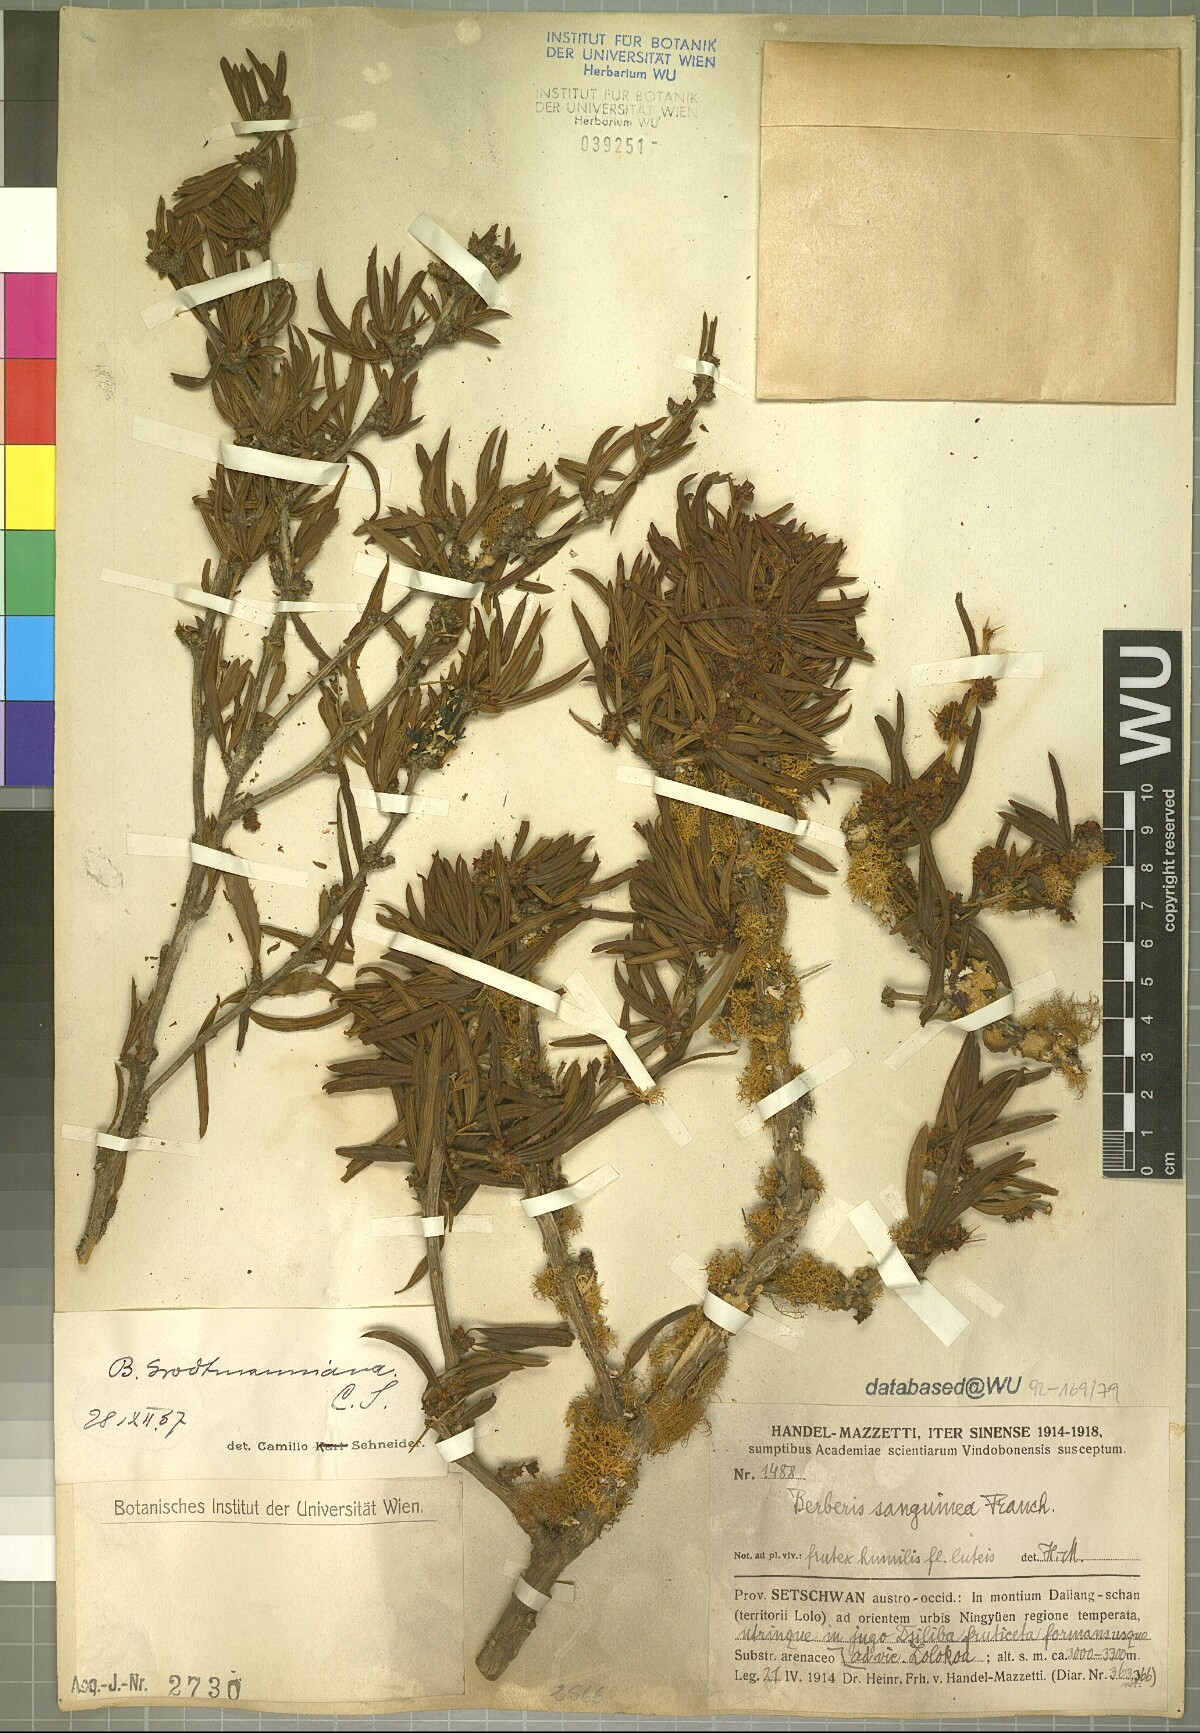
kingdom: Plantae
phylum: Tracheophyta
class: Magnoliopsida
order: Ranunculales
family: Berberidaceae
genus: Berberis
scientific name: Berberis grodtmanniana
